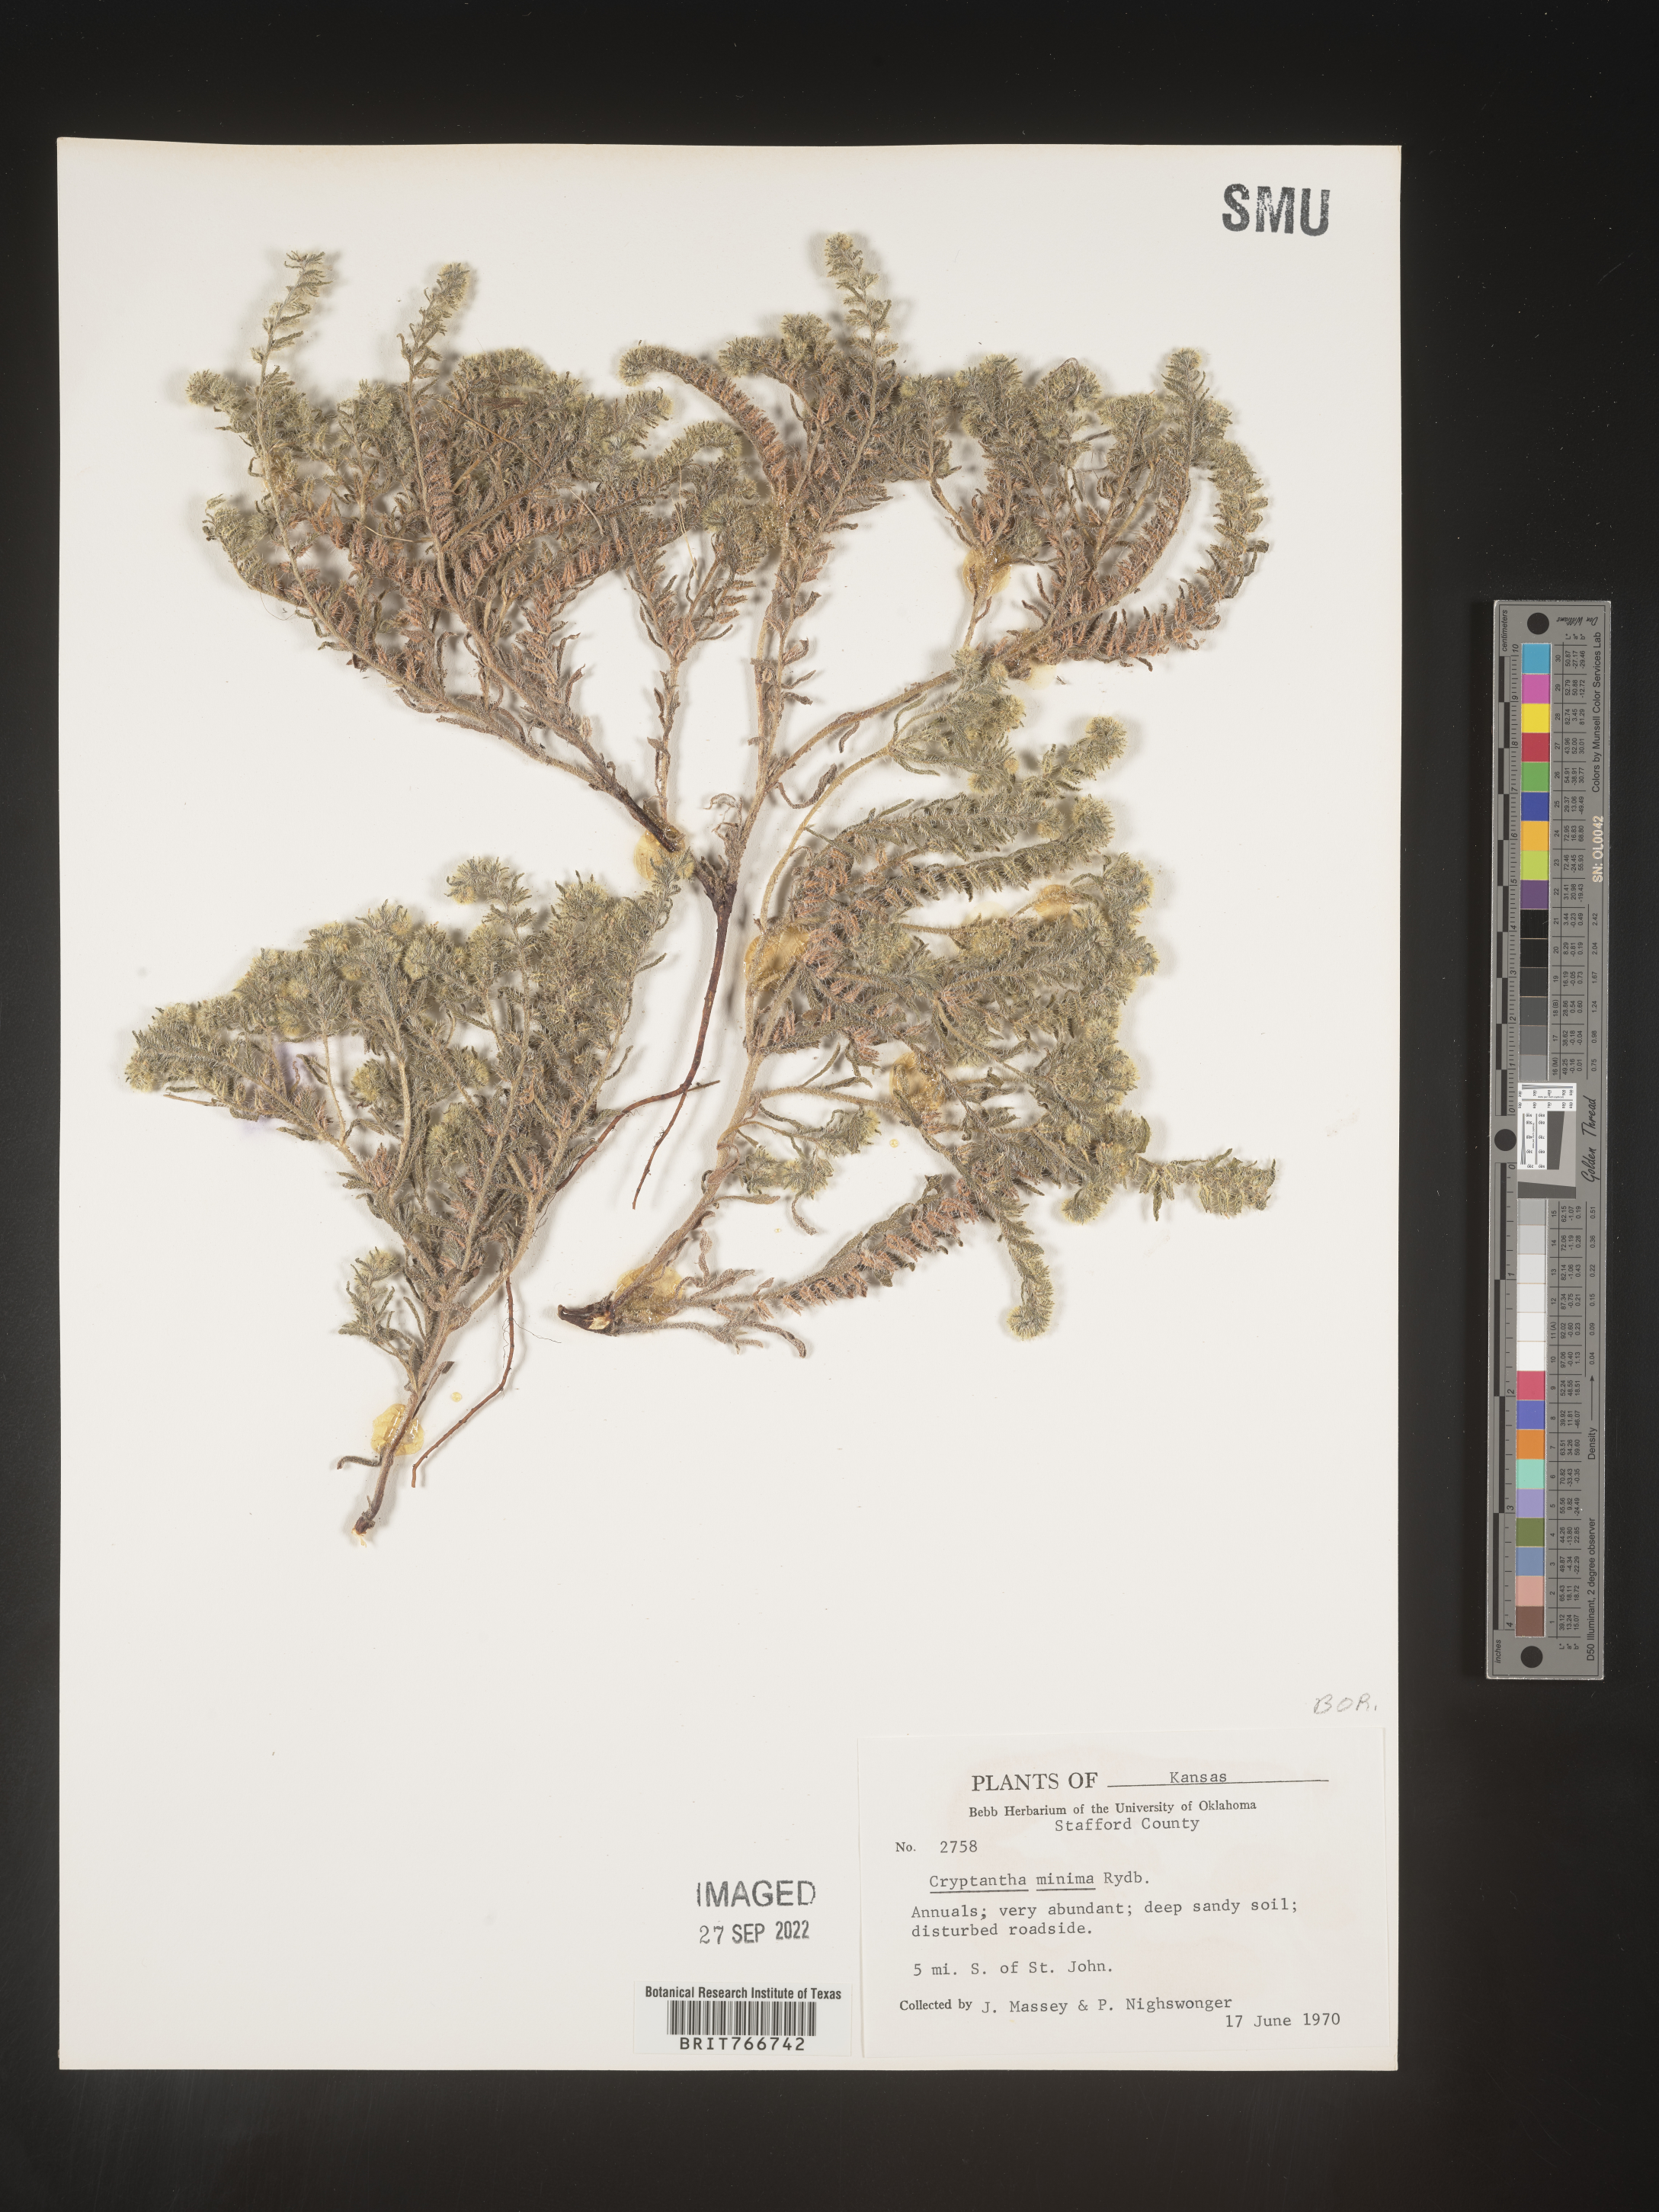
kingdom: Plantae
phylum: Tracheophyta
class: Magnoliopsida
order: Boraginales
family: Boraginaceae
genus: Cryptantha
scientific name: Cryptantha minima
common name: Little cat's-eye
